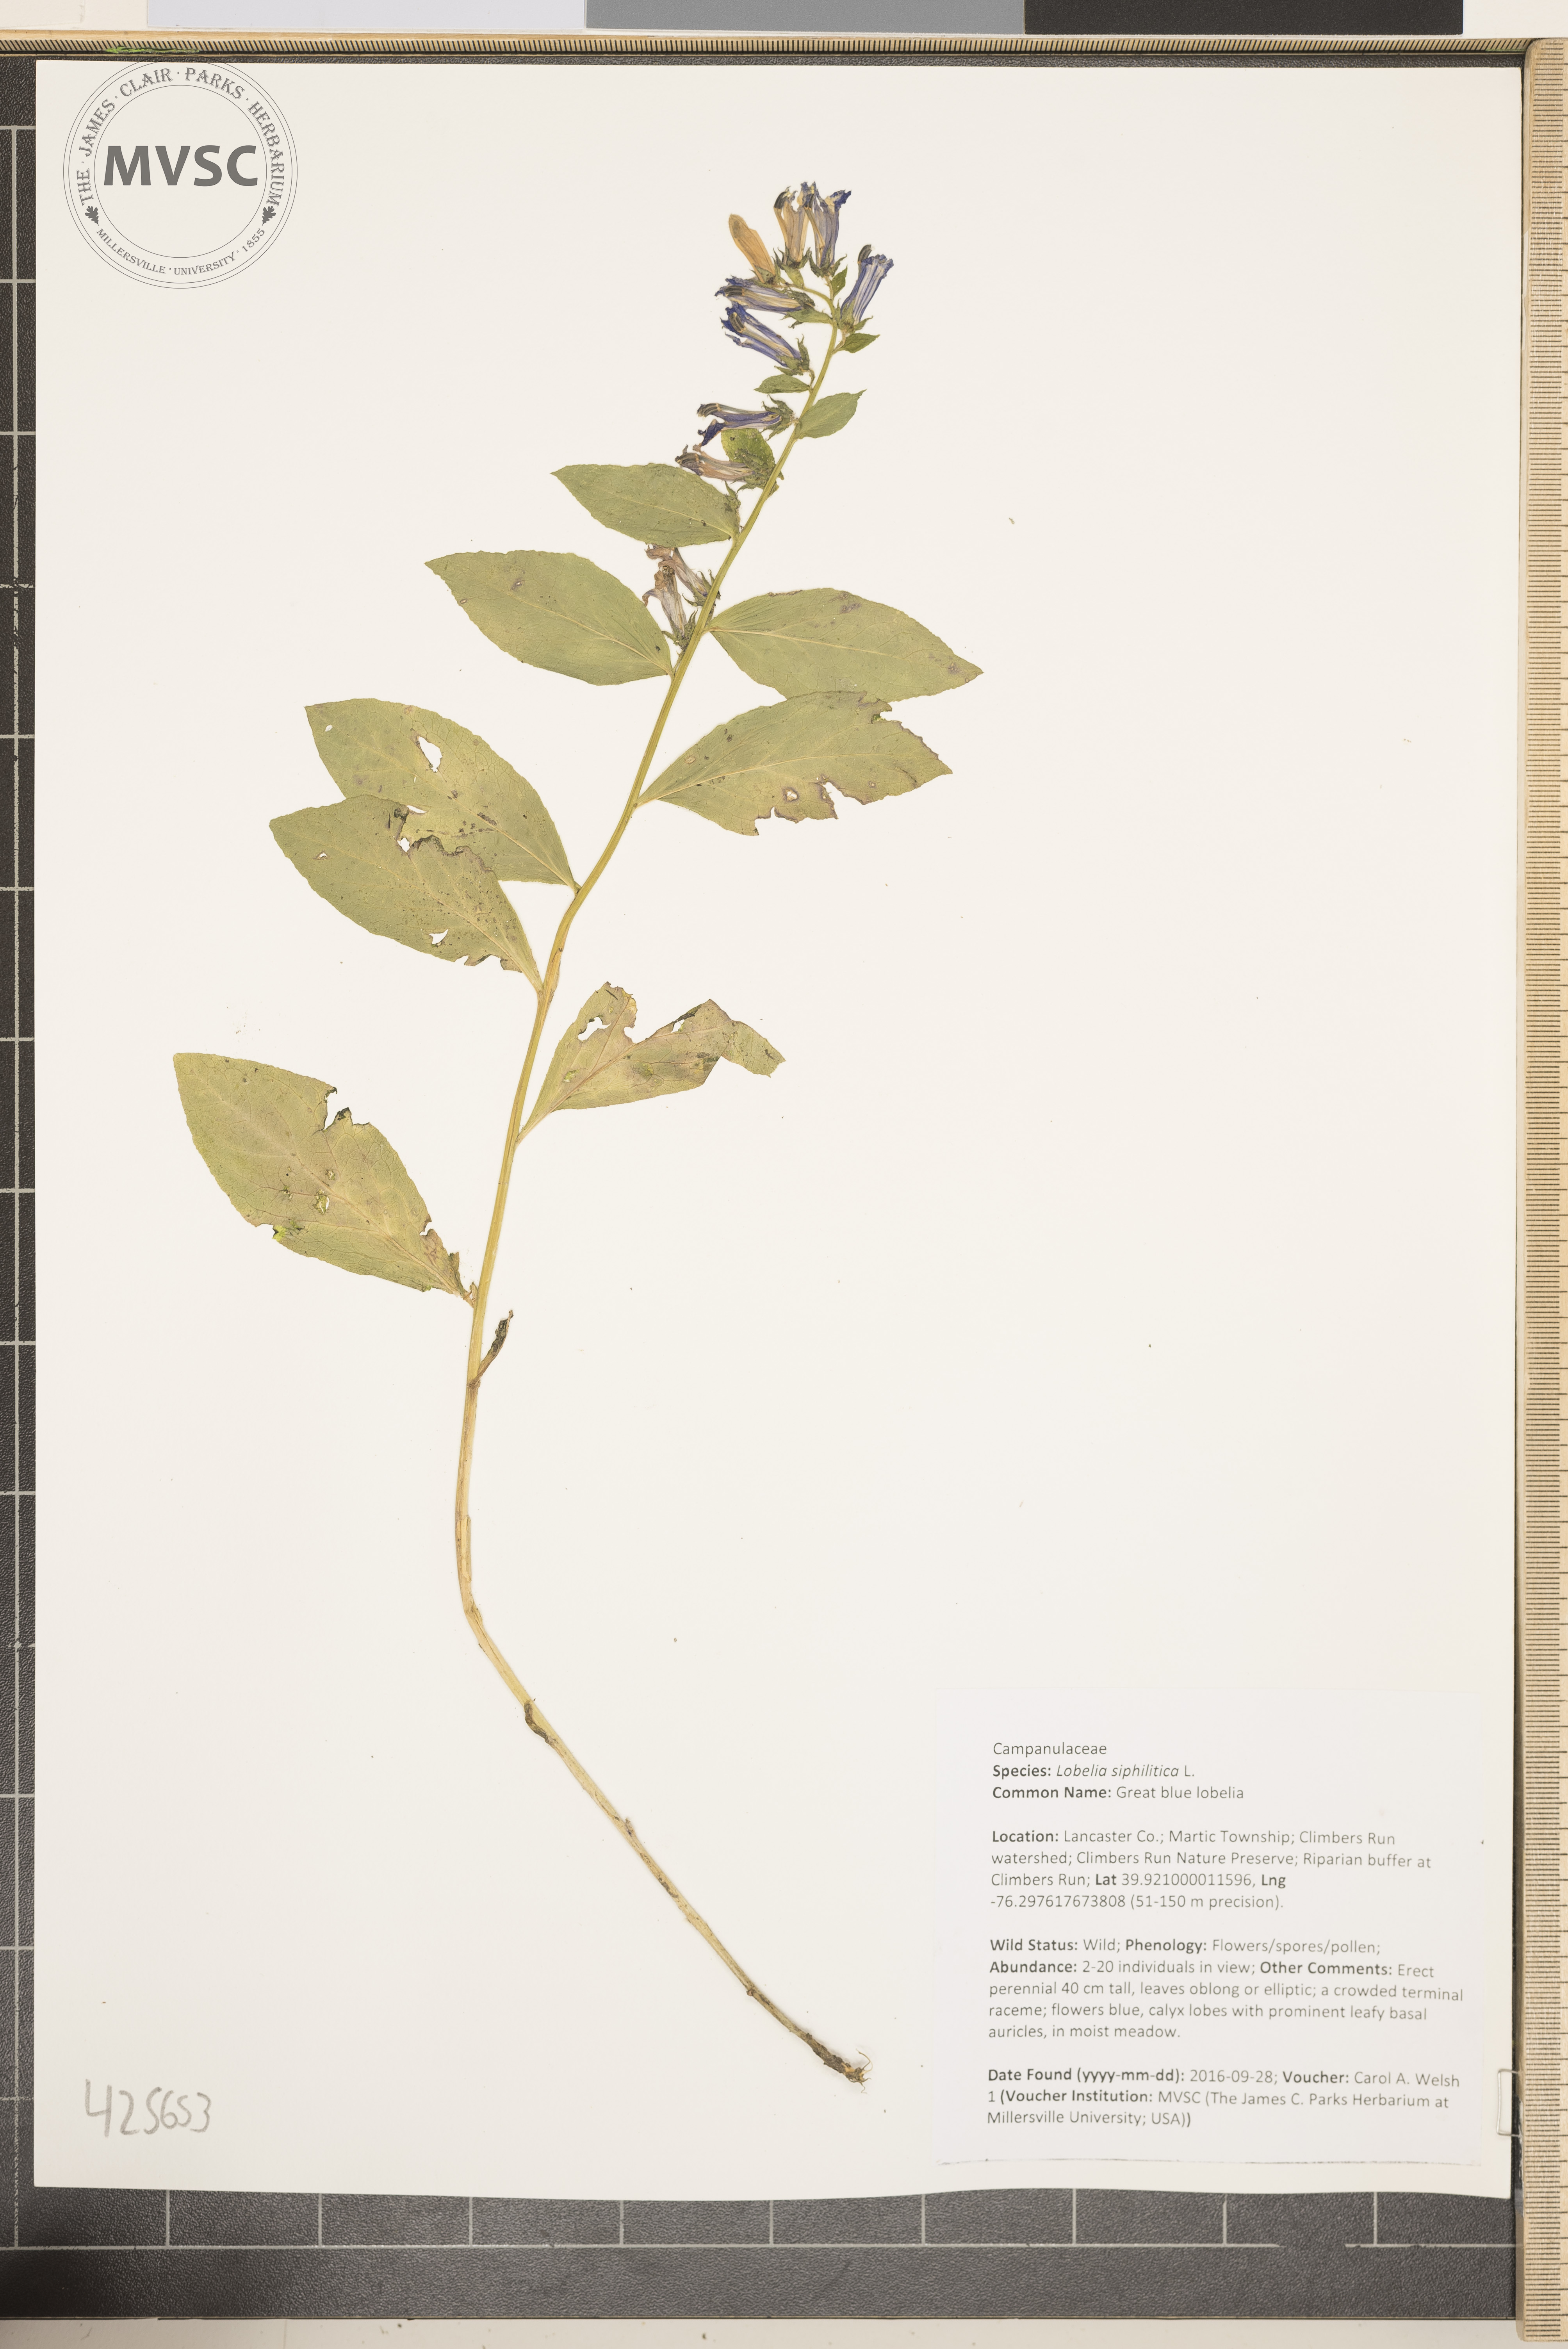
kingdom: Plantae
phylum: Tracheophyta
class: Magnoliopsida
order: Asterales
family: Campanulaceae
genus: Lobelia
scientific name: Lobelia siphilitica
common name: great blue lobelia
